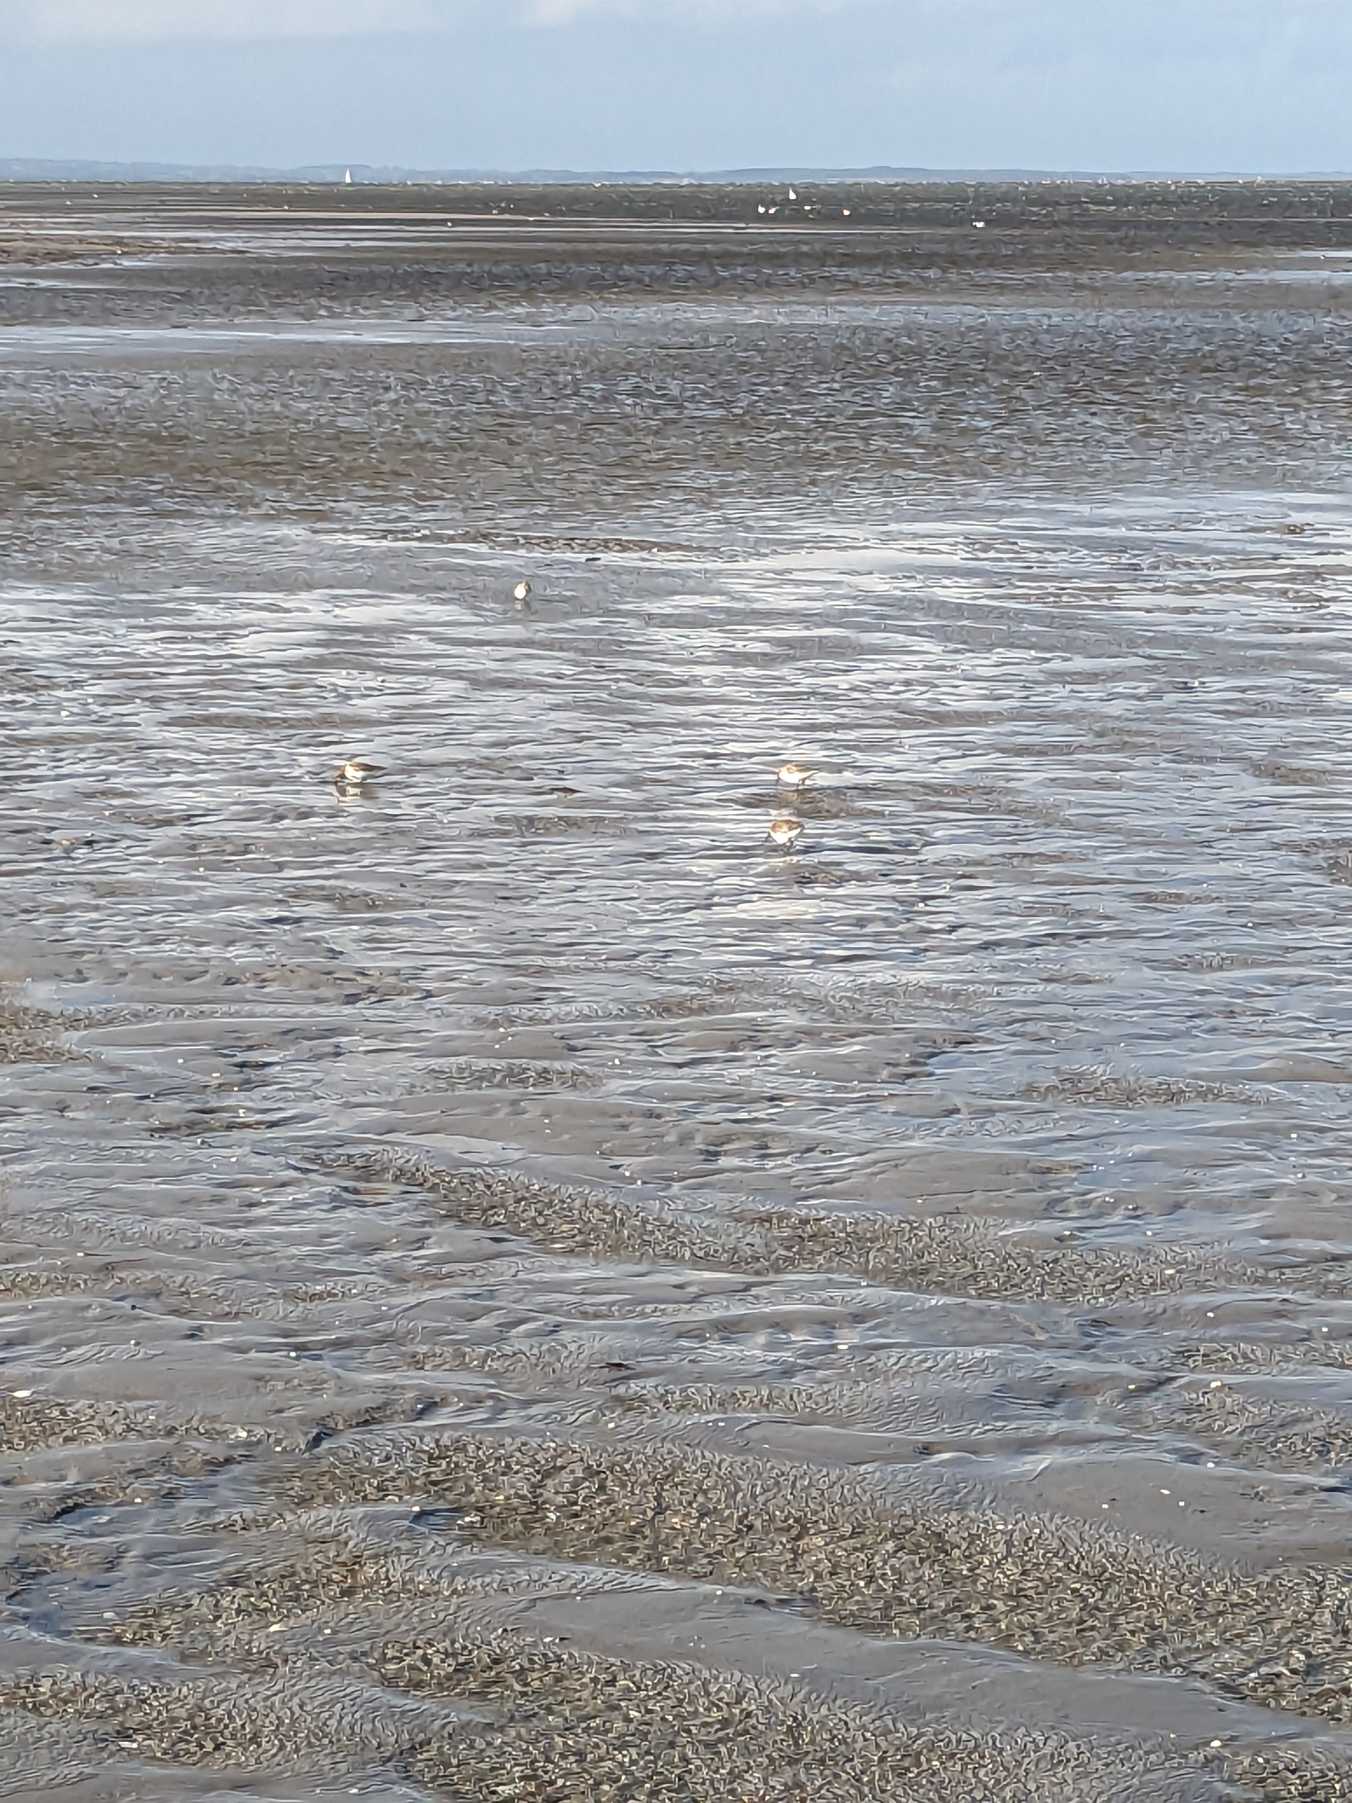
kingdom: Animalia
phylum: Chordata
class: Aves
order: Charadriiformes
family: Scolopacidae
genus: Calidris
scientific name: Calidris alba
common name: Sandløber
